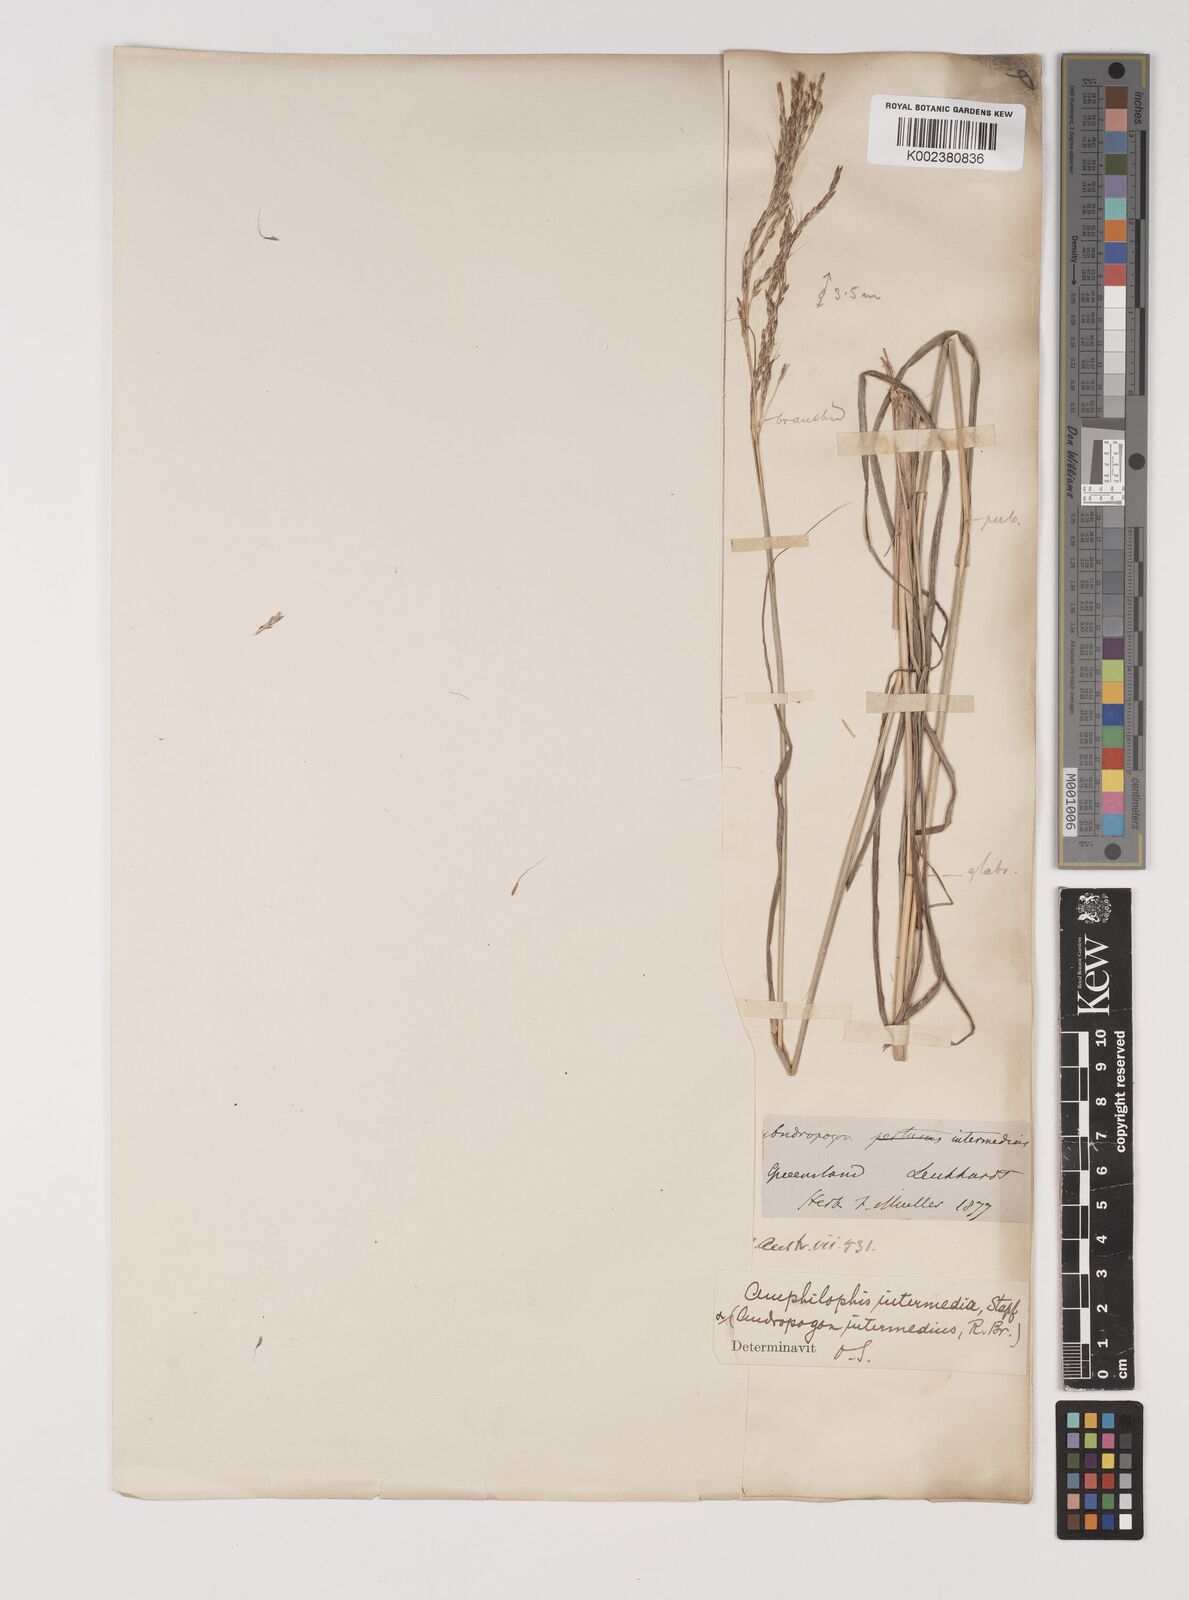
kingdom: Plantae
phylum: Tracheophyta
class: Liliopsida
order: Poales
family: Poaceae
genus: Bothriochloa
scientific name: Bothriochloa bladhii
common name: Caucasian bluestem
